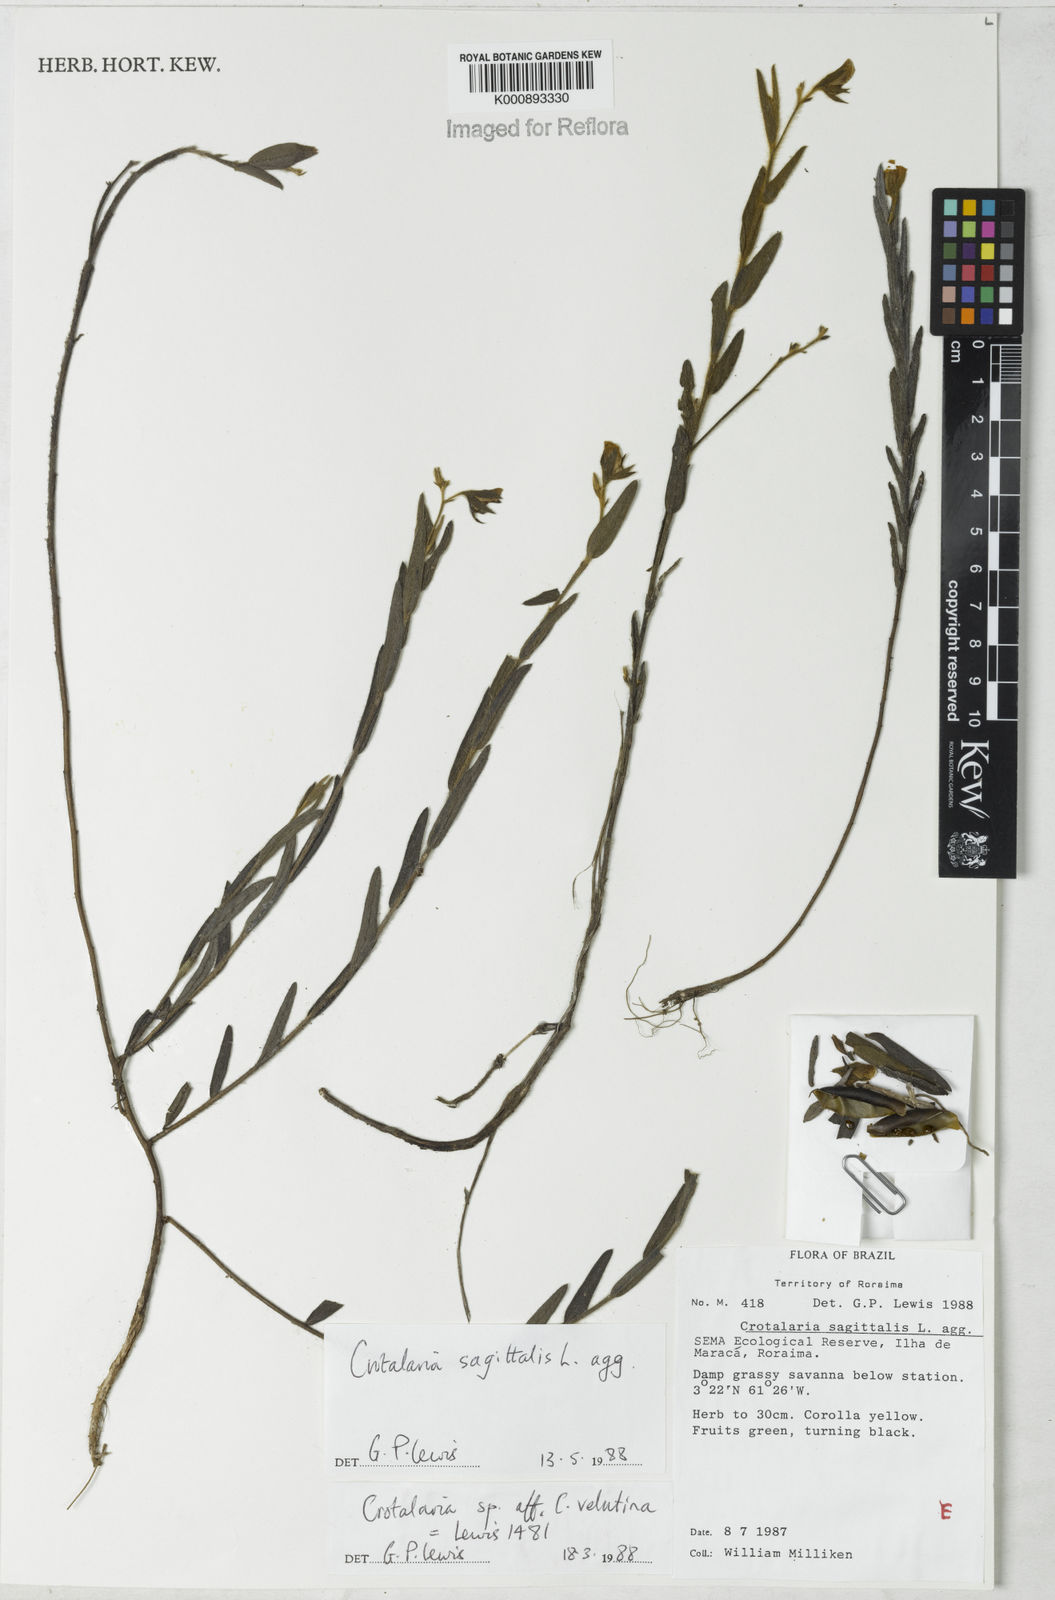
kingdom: Plantae
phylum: Tracheophyta
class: Magnoliopsida
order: Fabales
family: Fabaceae
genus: Crotalaria
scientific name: Crotalaria sagittalis
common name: Arrowhead rattlebox
